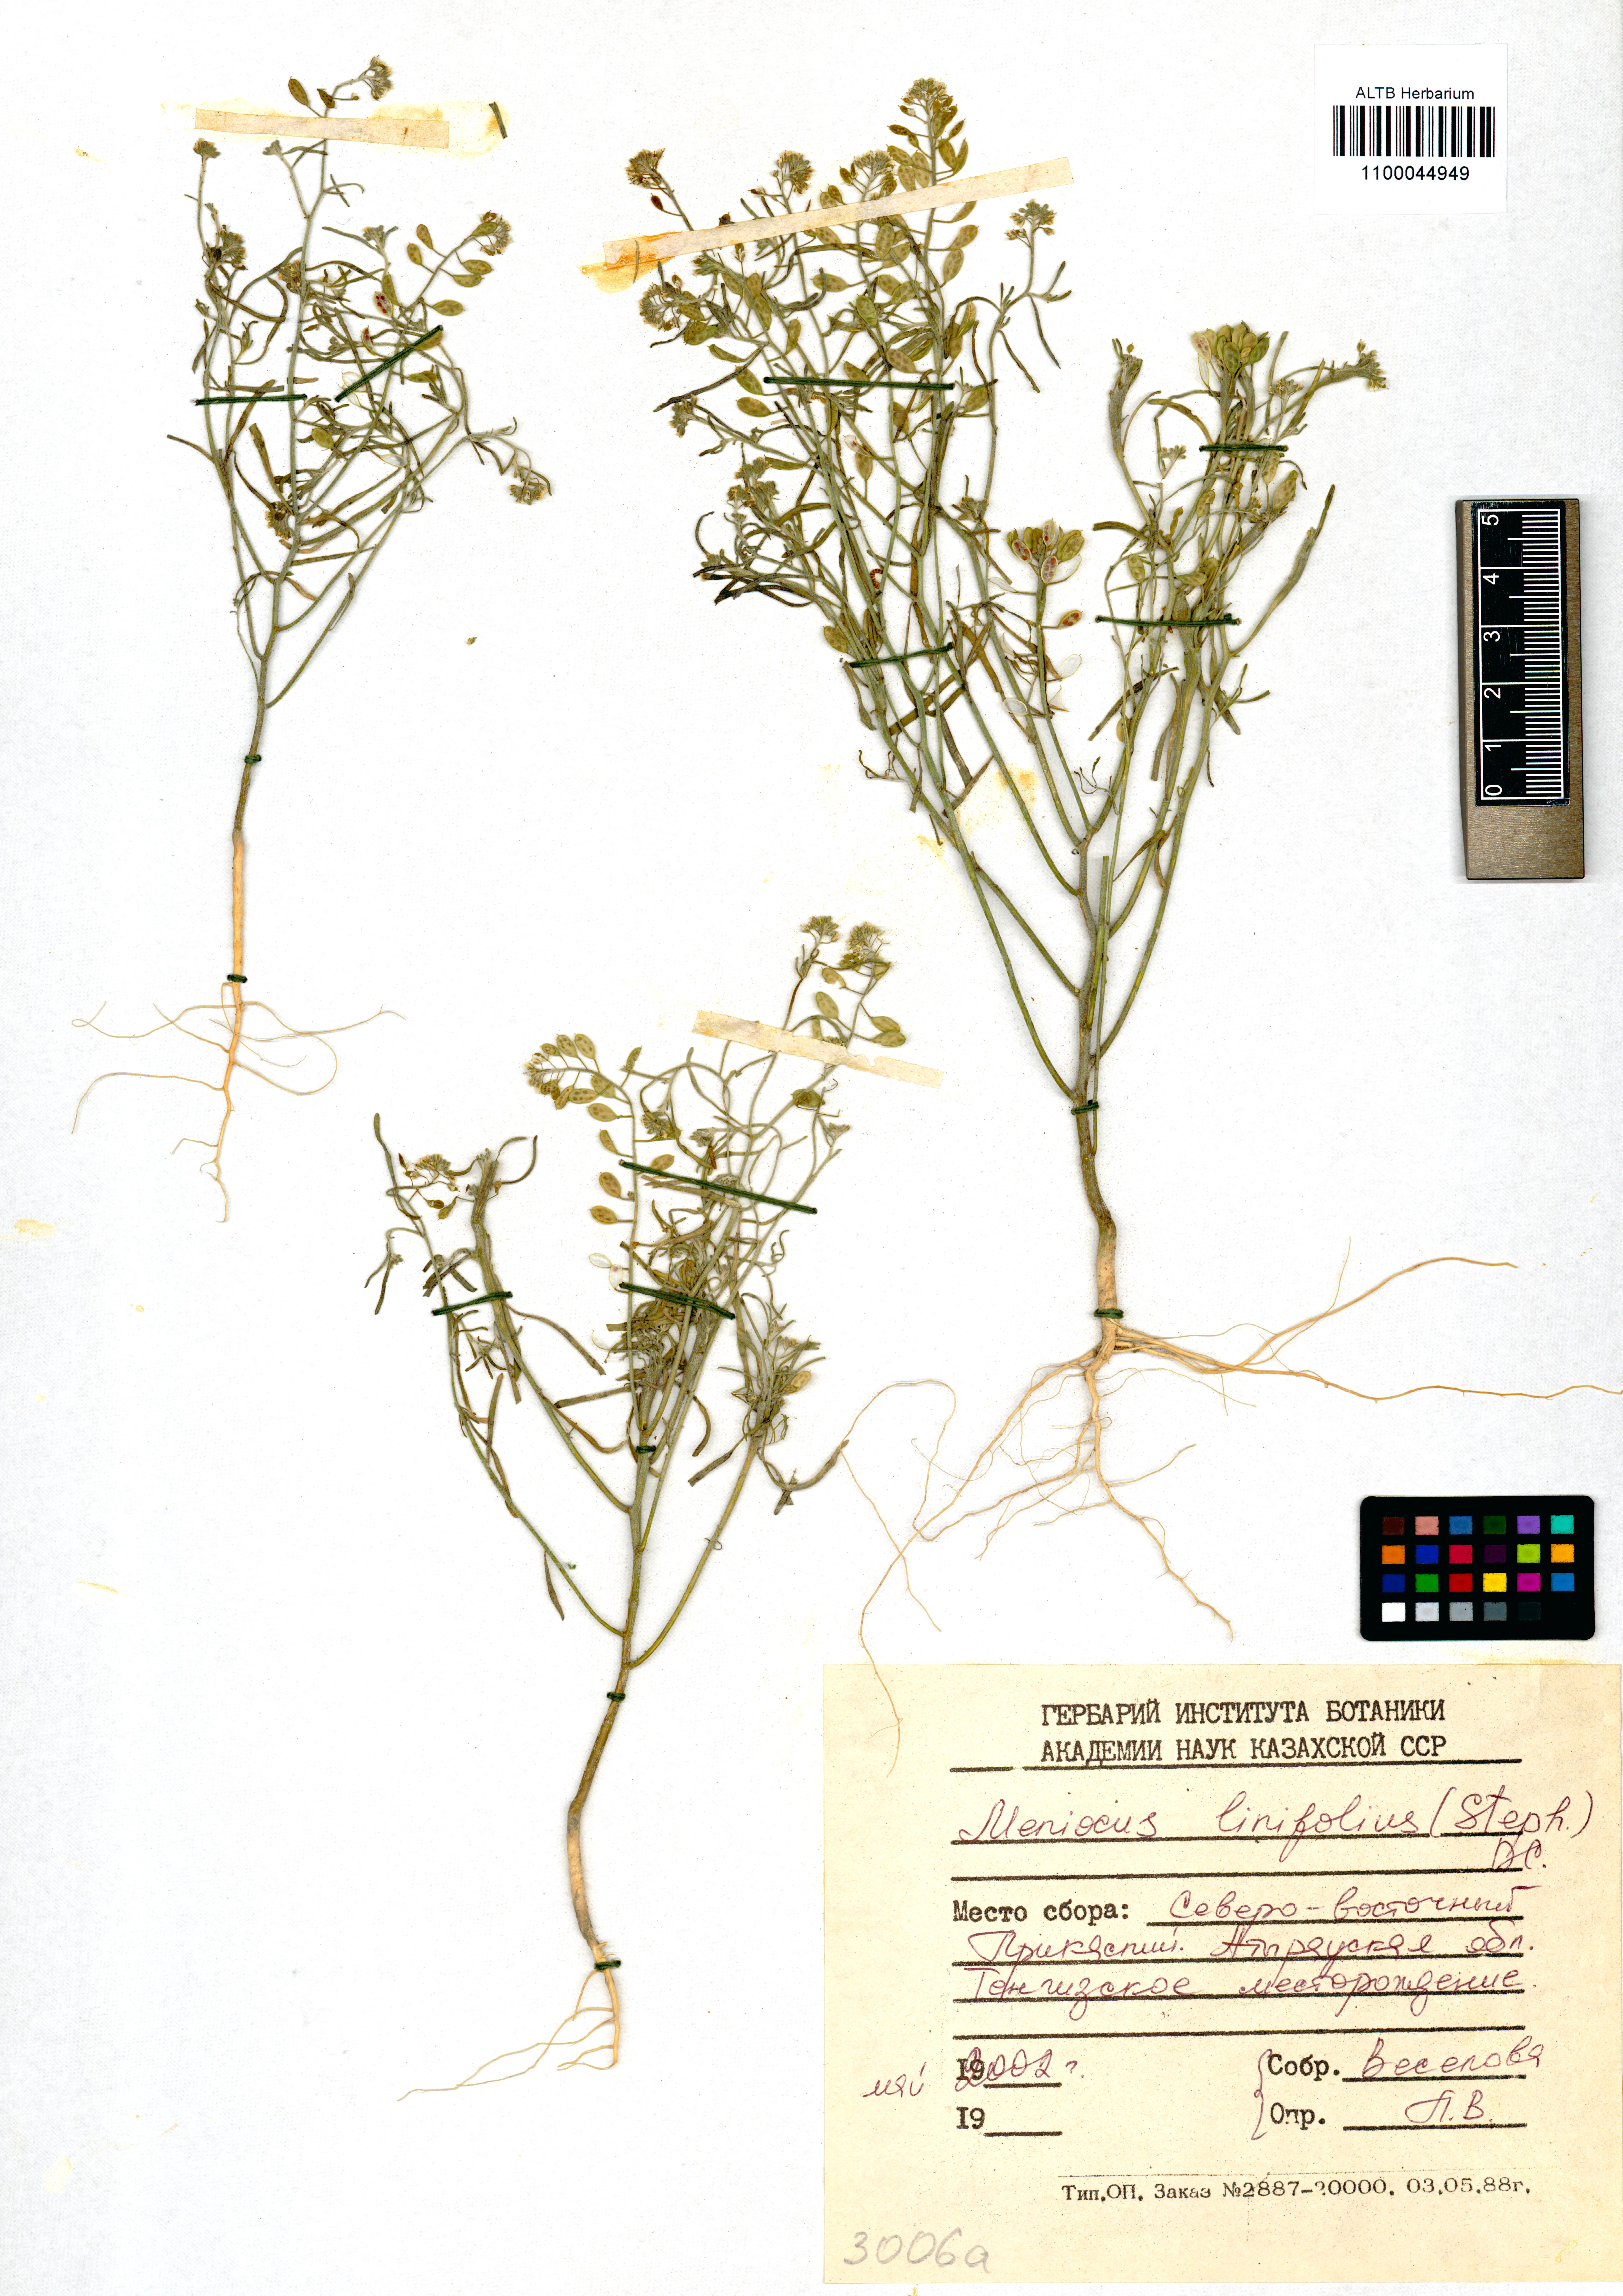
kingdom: Plantae
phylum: Tracheophyta
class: Magnoliopsida
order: Brassicales
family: Brassicaceae
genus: Meniocus
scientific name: Meniocus linifolius
